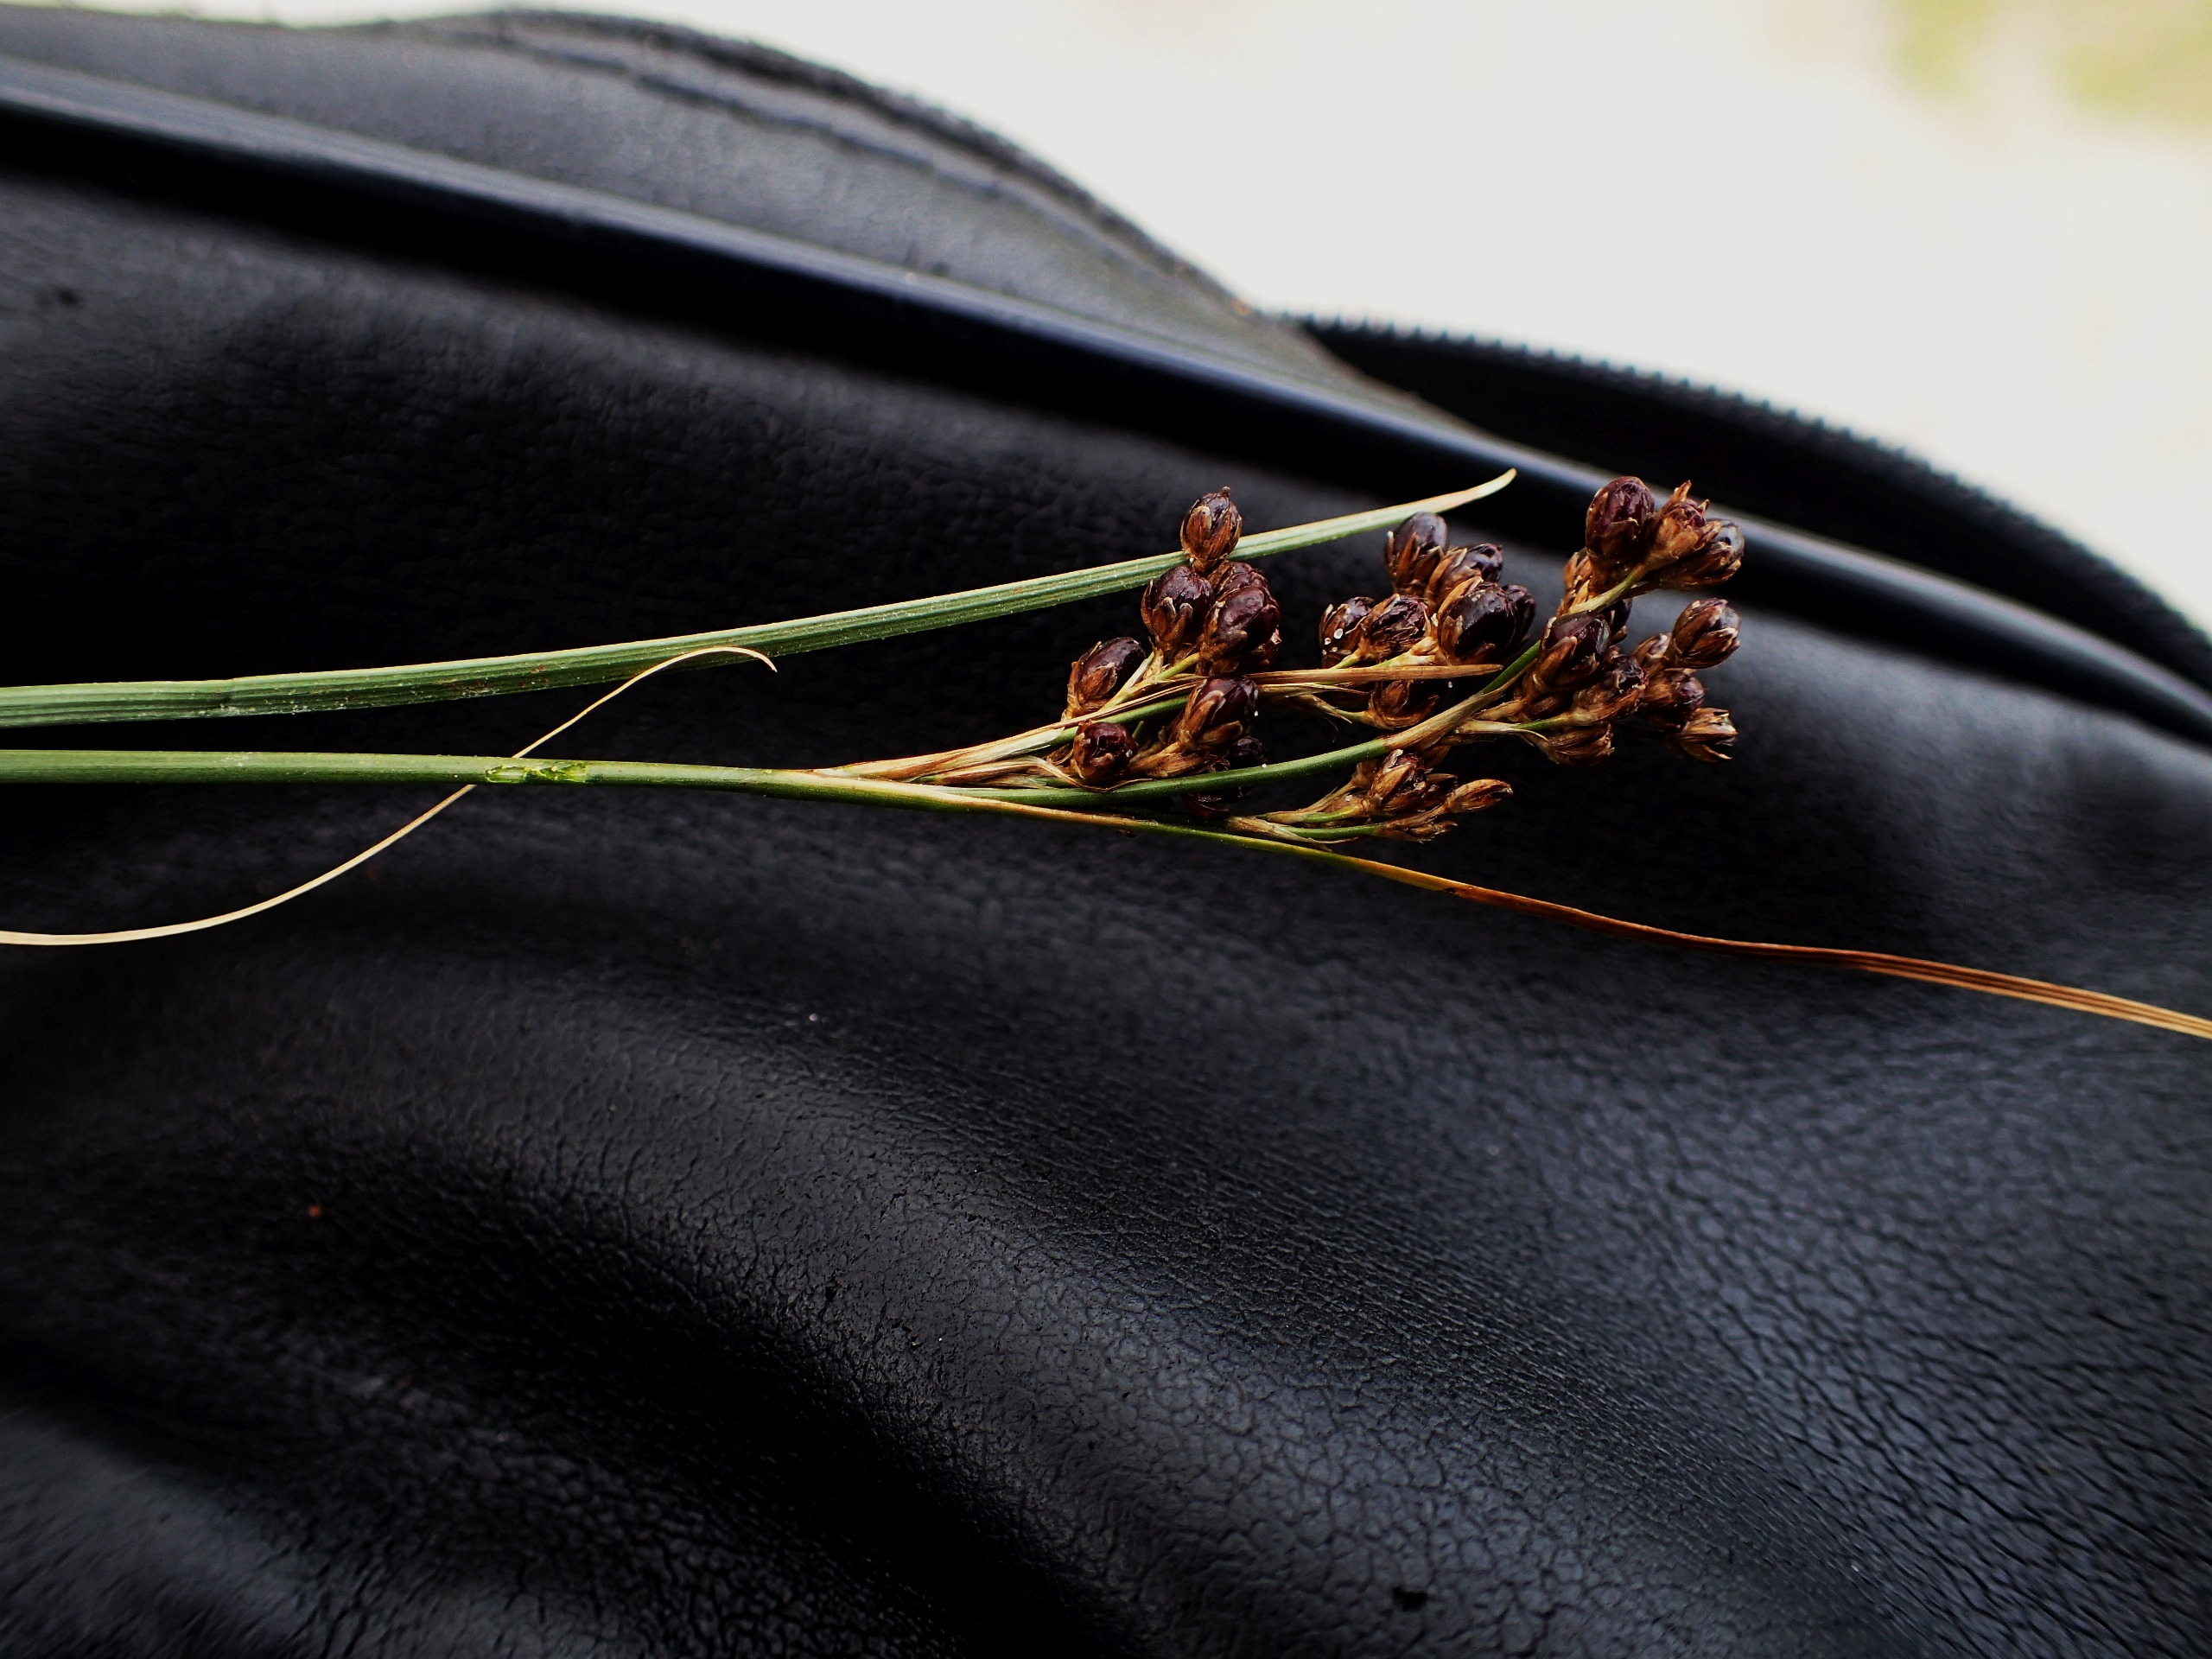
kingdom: Plantae
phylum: Tracheophyta
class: Liliopsida
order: Poales
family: Juncaceae
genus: Juncus
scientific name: Juncus compressus
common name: Fladstrået siv
